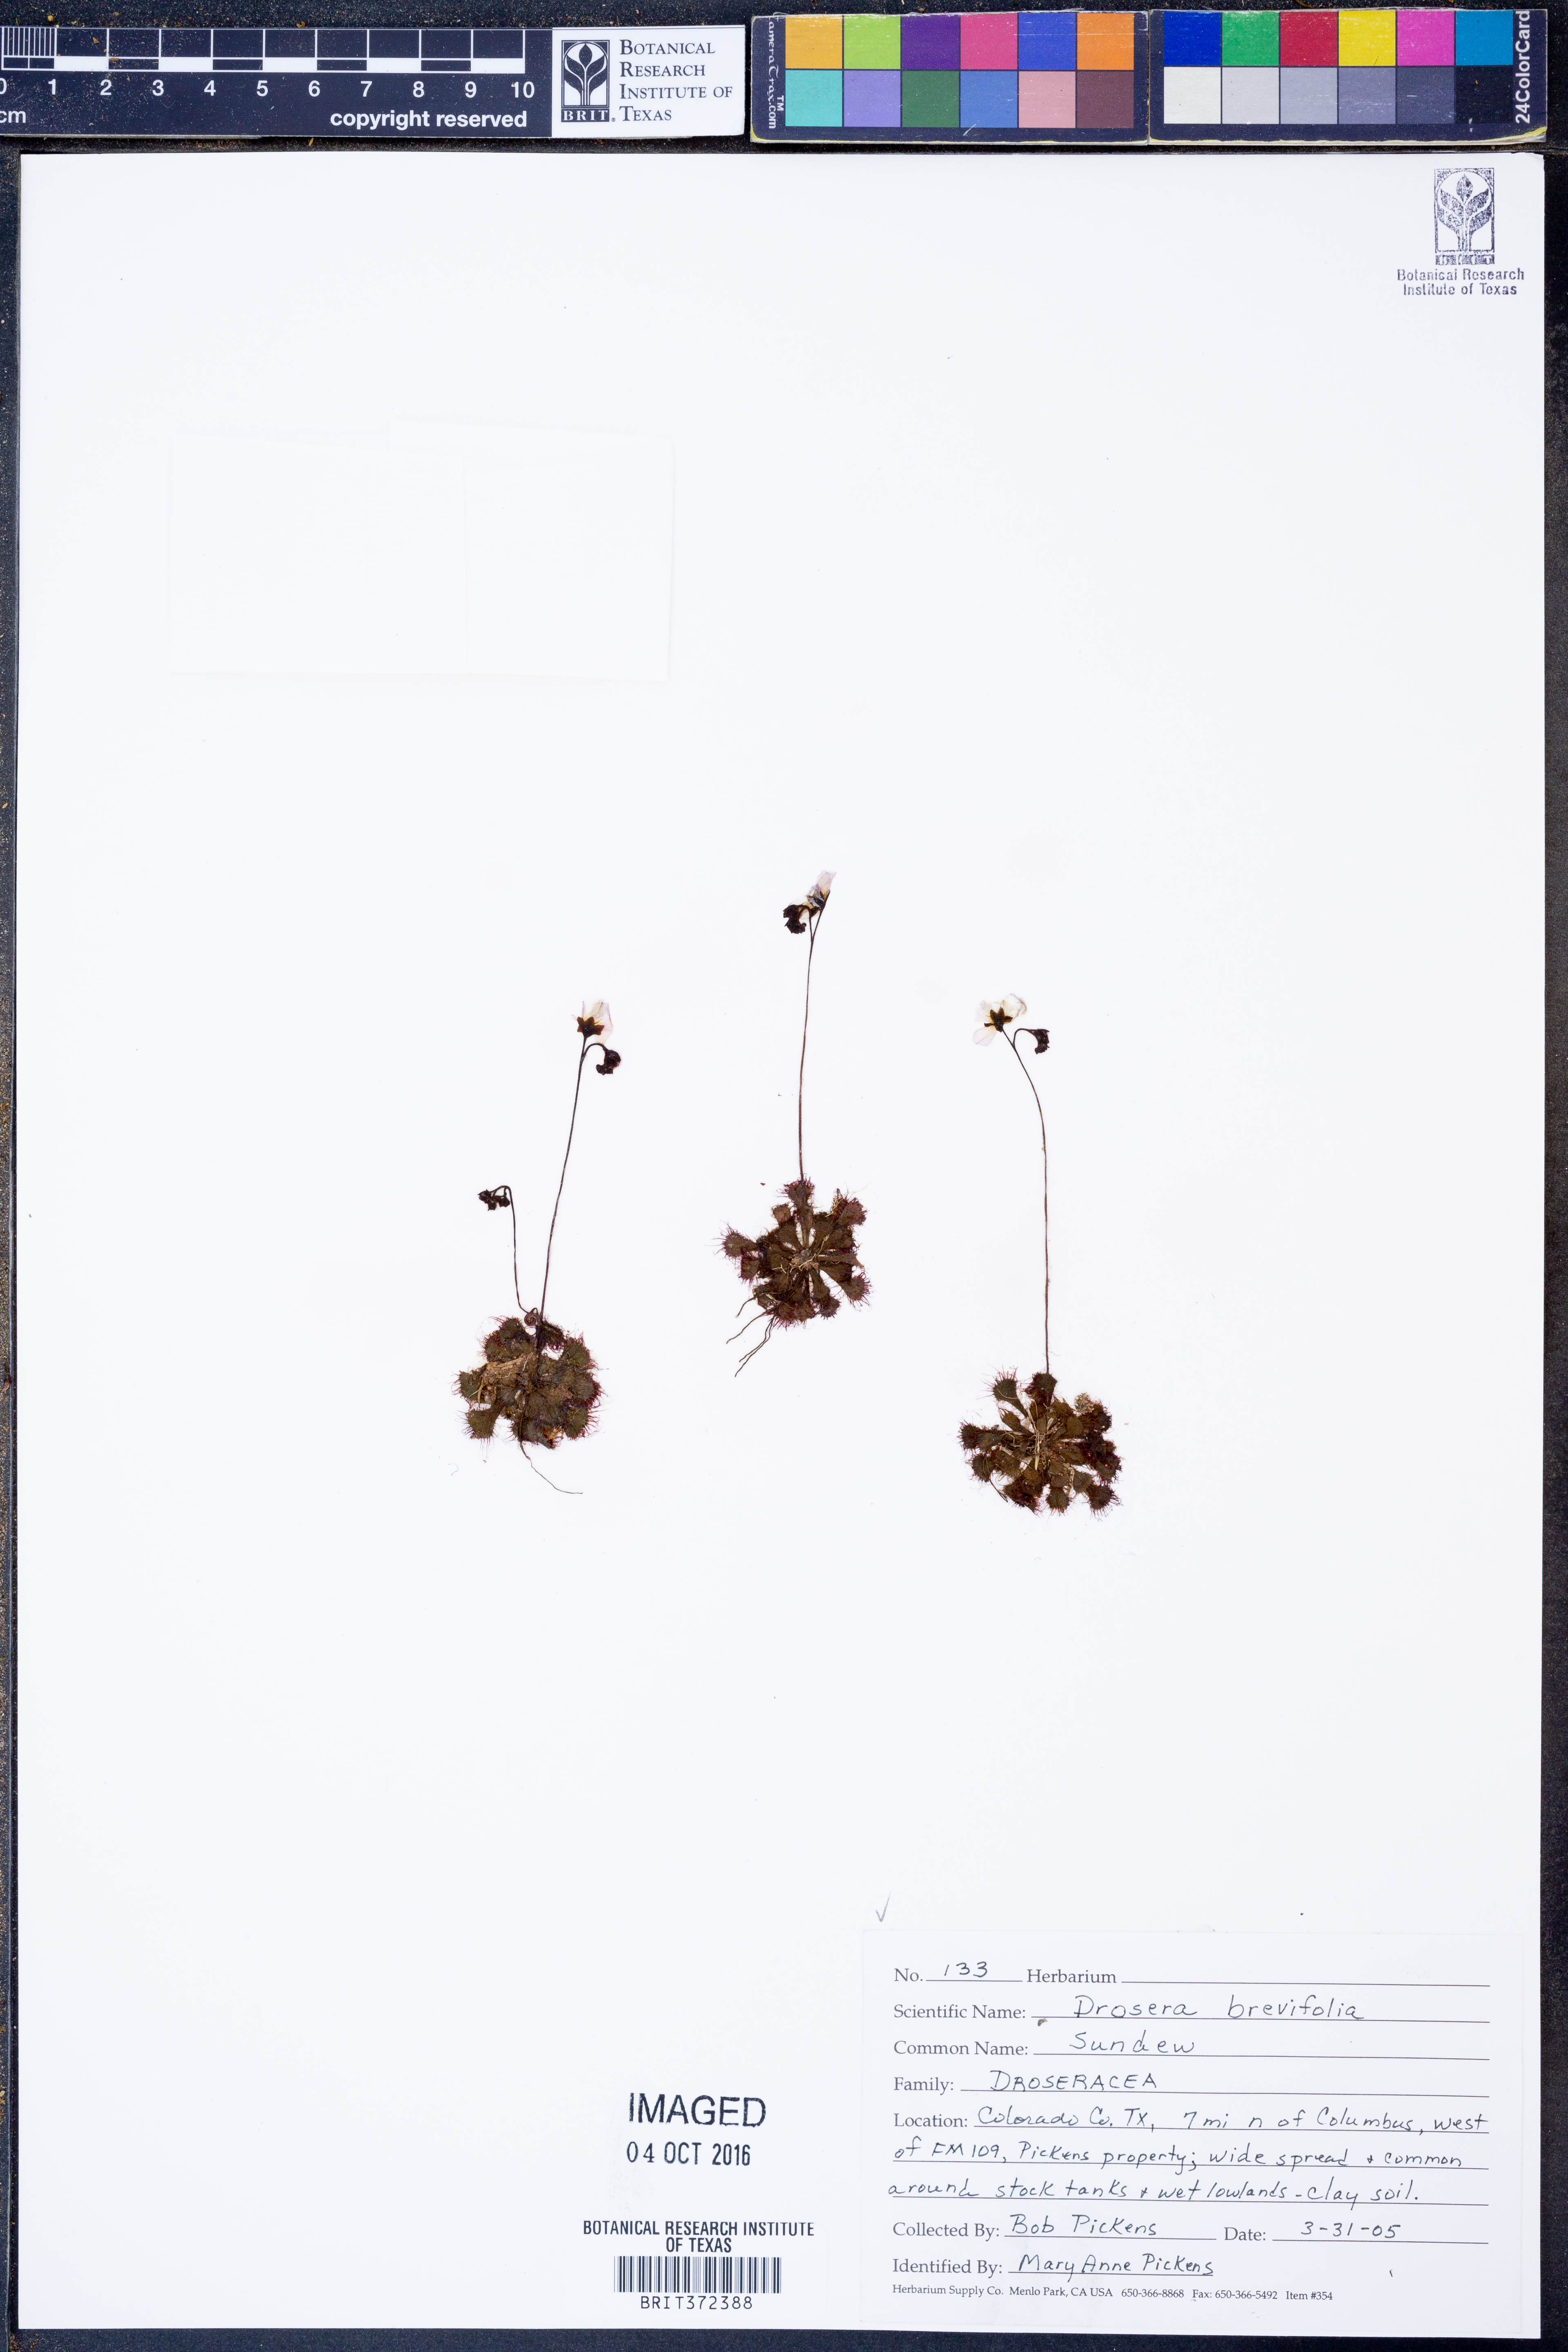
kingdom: Plantae
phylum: Tracheophyta
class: Magnoliopsida
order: Caryophyllales
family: Droseraceae
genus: Drosera
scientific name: Drosera brevifolia
